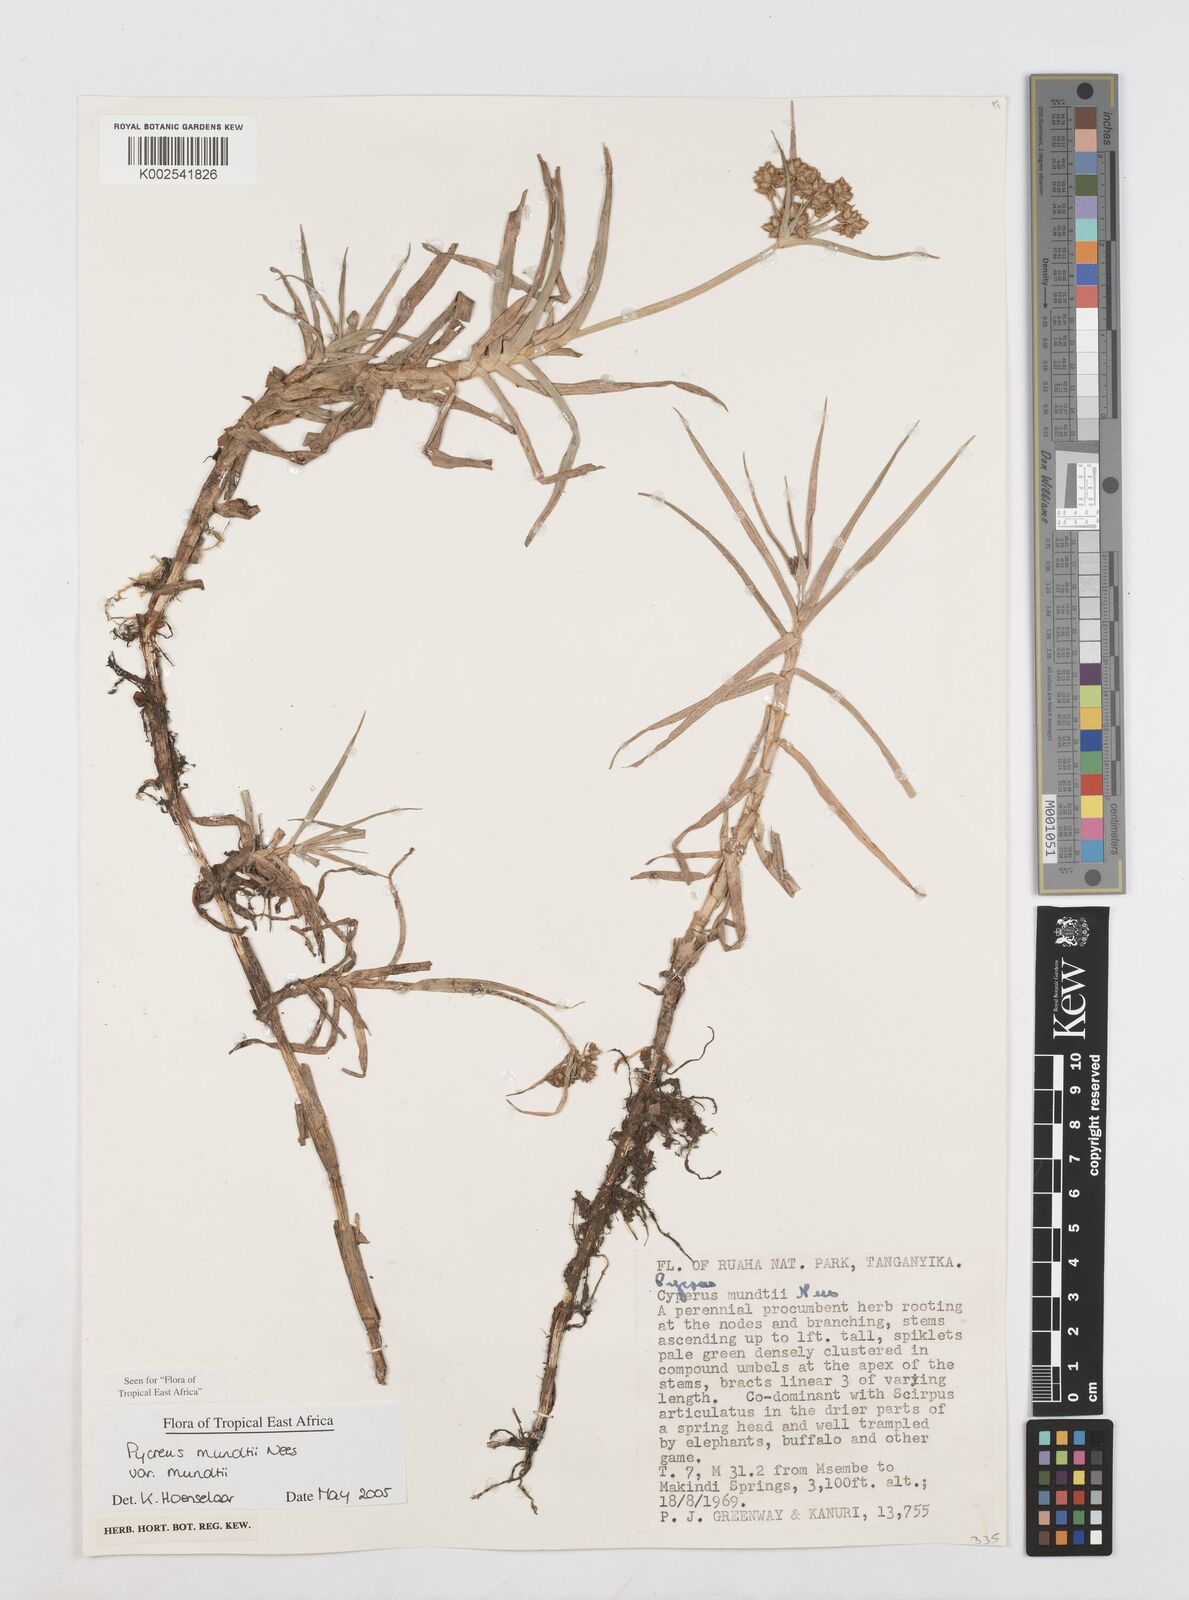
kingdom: Plantae
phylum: Tracheophyta
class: Liliopsida
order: Poales
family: Cyperaceae
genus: Cyperus
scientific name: Cyperus mundii
